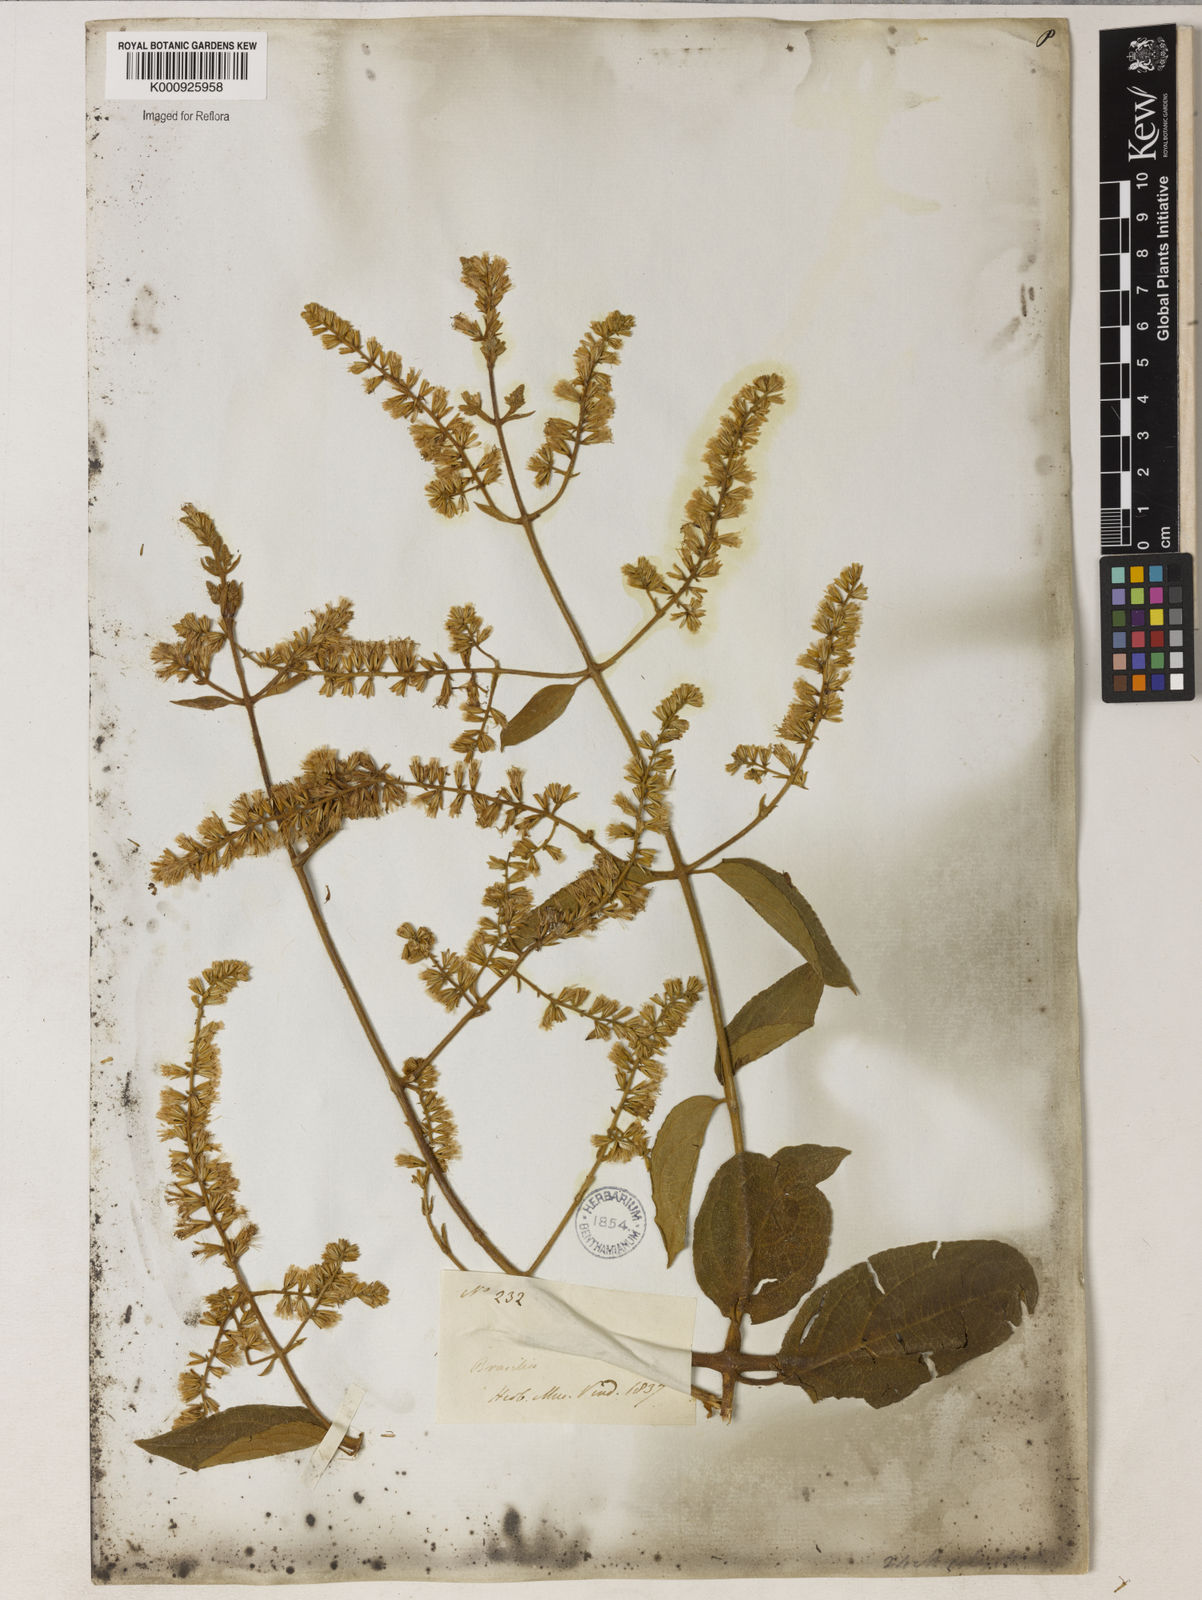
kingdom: Plantae
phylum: Tracheophyta
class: Magnoliopsida
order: Asterales
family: Asteraceae
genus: Mikania
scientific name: Mikania psilostachya
